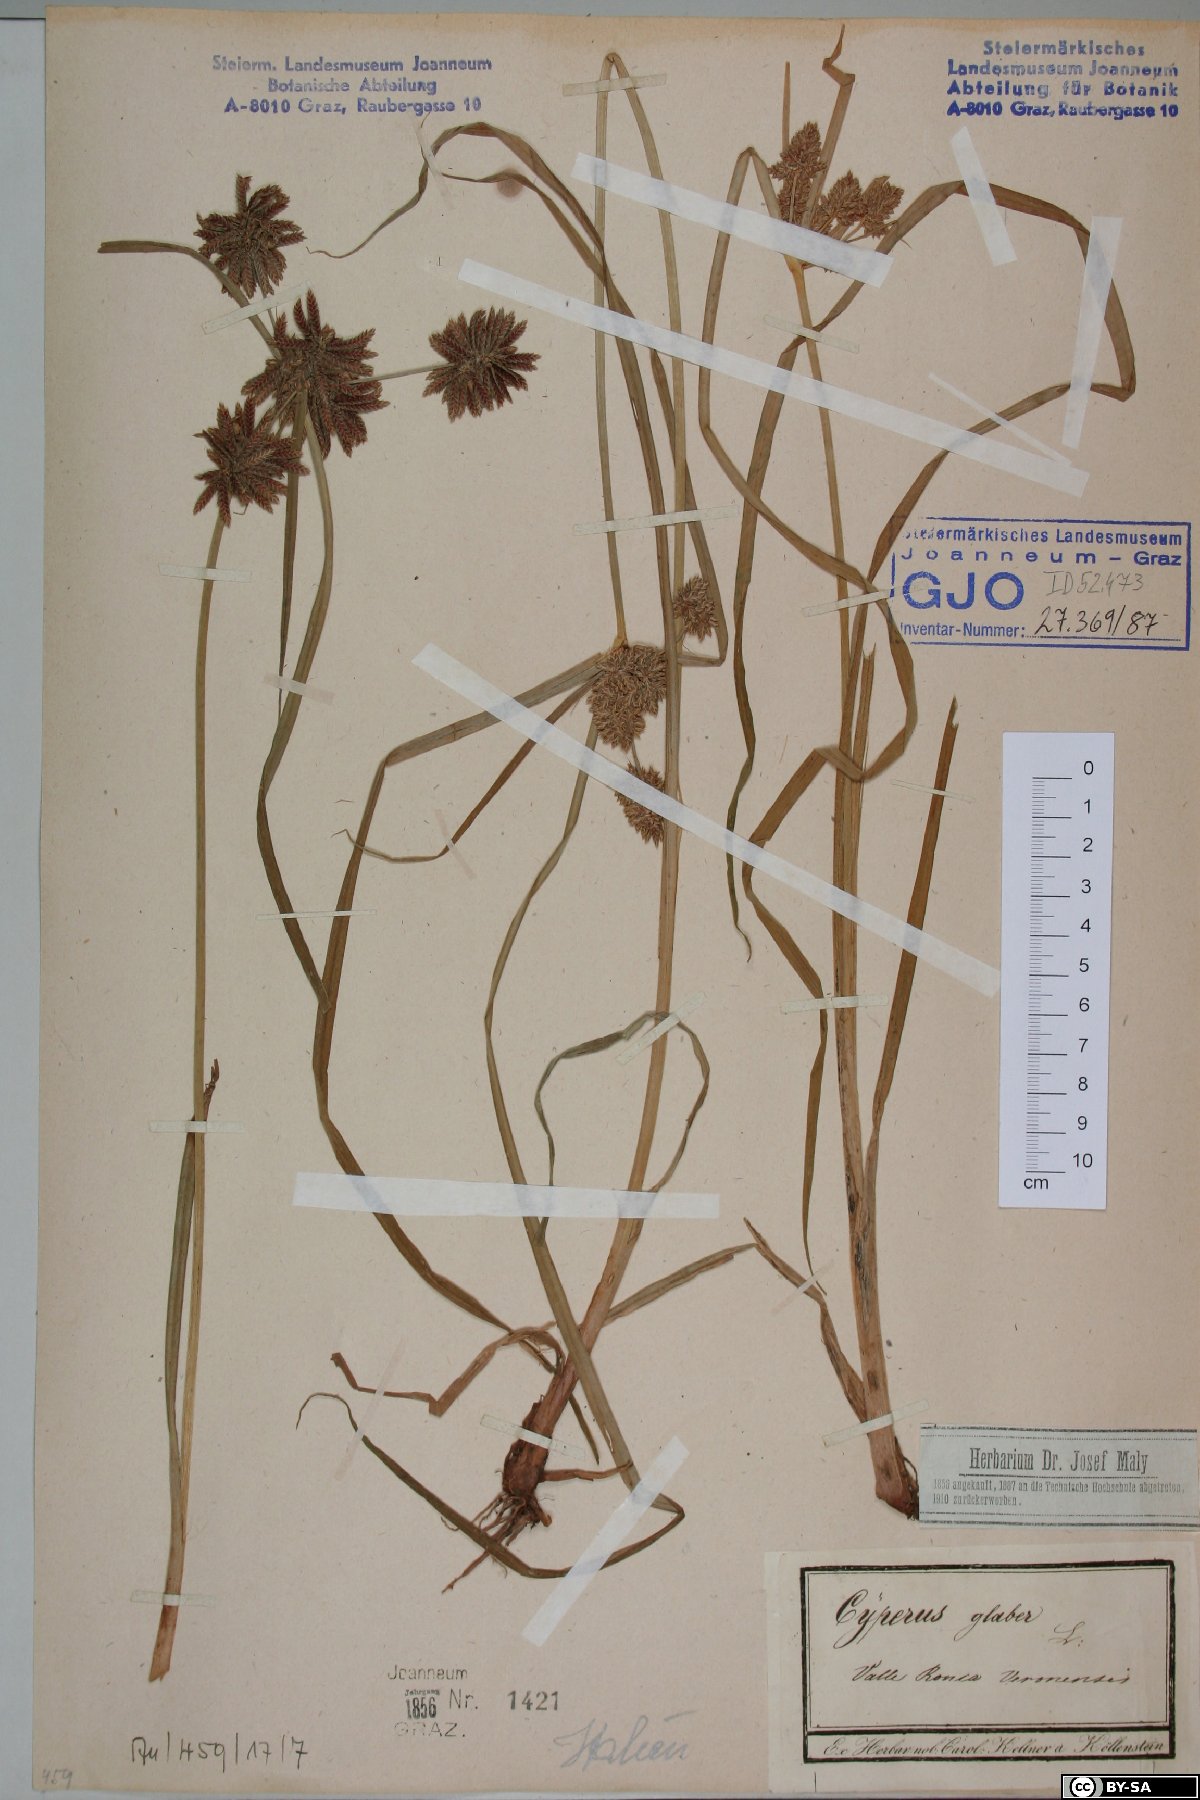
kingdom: Plantae
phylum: Tracheophyta
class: Liliopsida
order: Poales
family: Cyperaceae
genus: Cyperus
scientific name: Cyperus glaber
